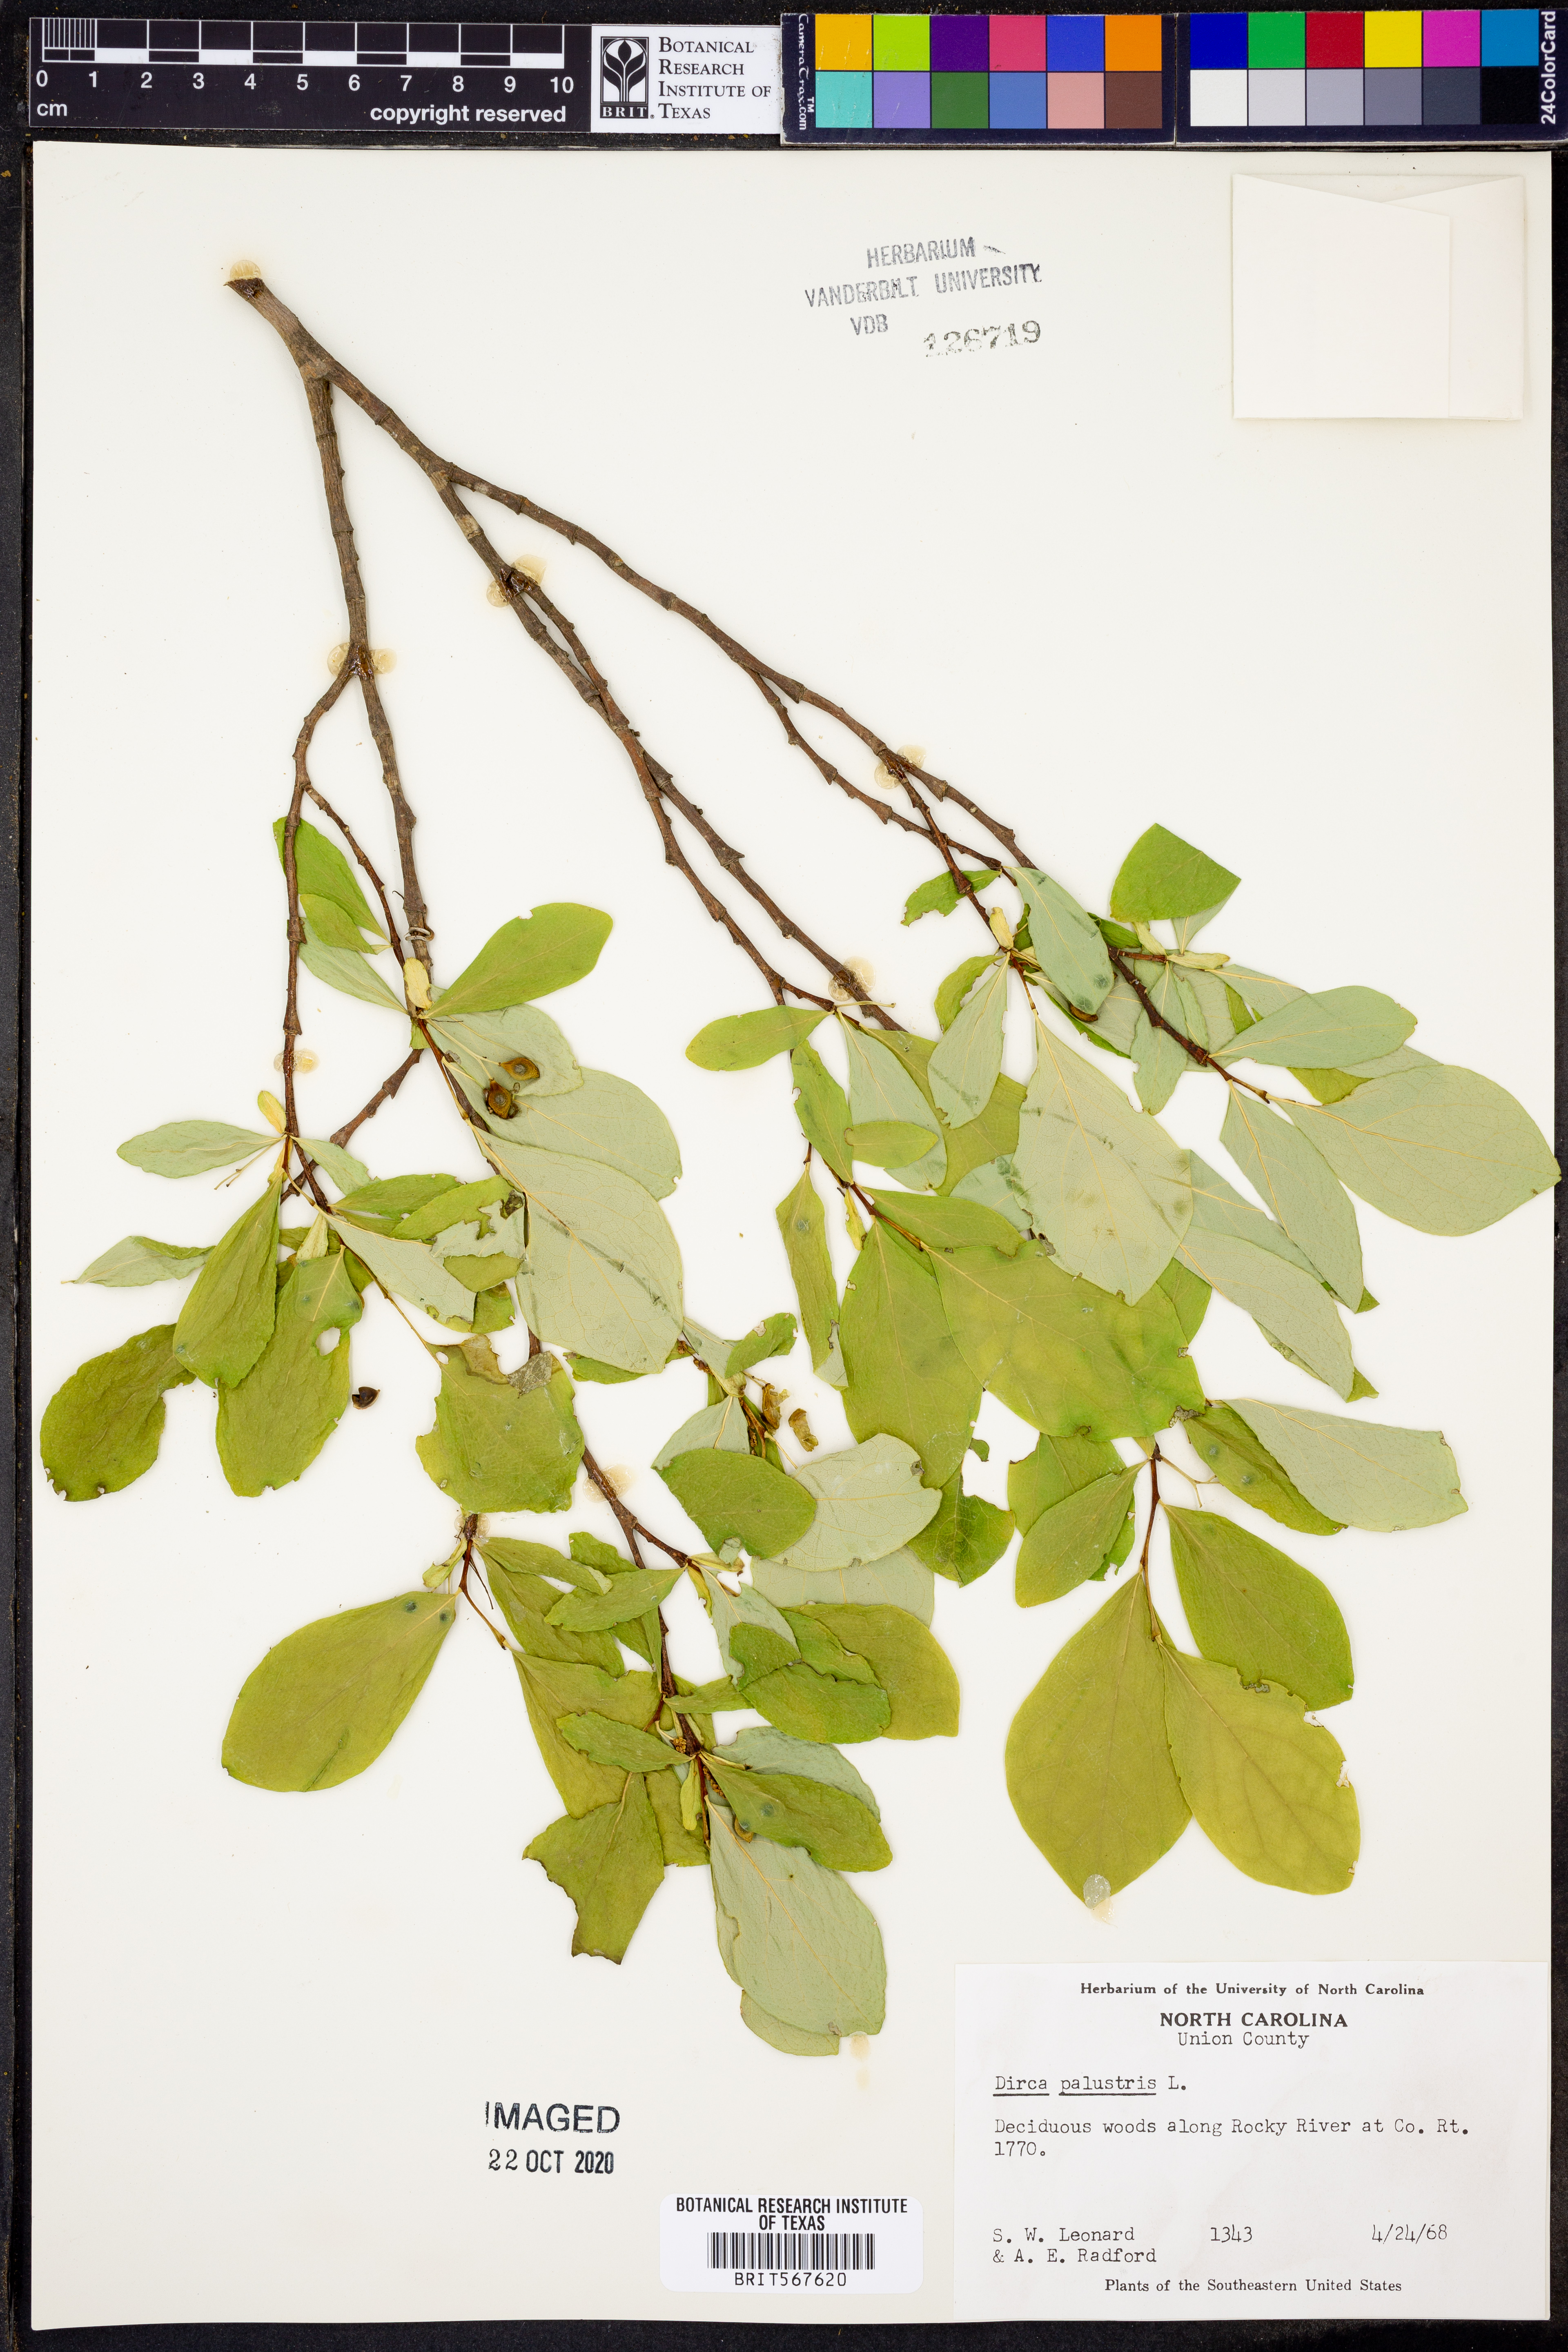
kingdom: Plantae
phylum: Tracheophyta
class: Magnoliopsida
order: Malvales
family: Thymelaeaceae
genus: Dirca
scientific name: Dirca palustris
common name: Leatherwood
